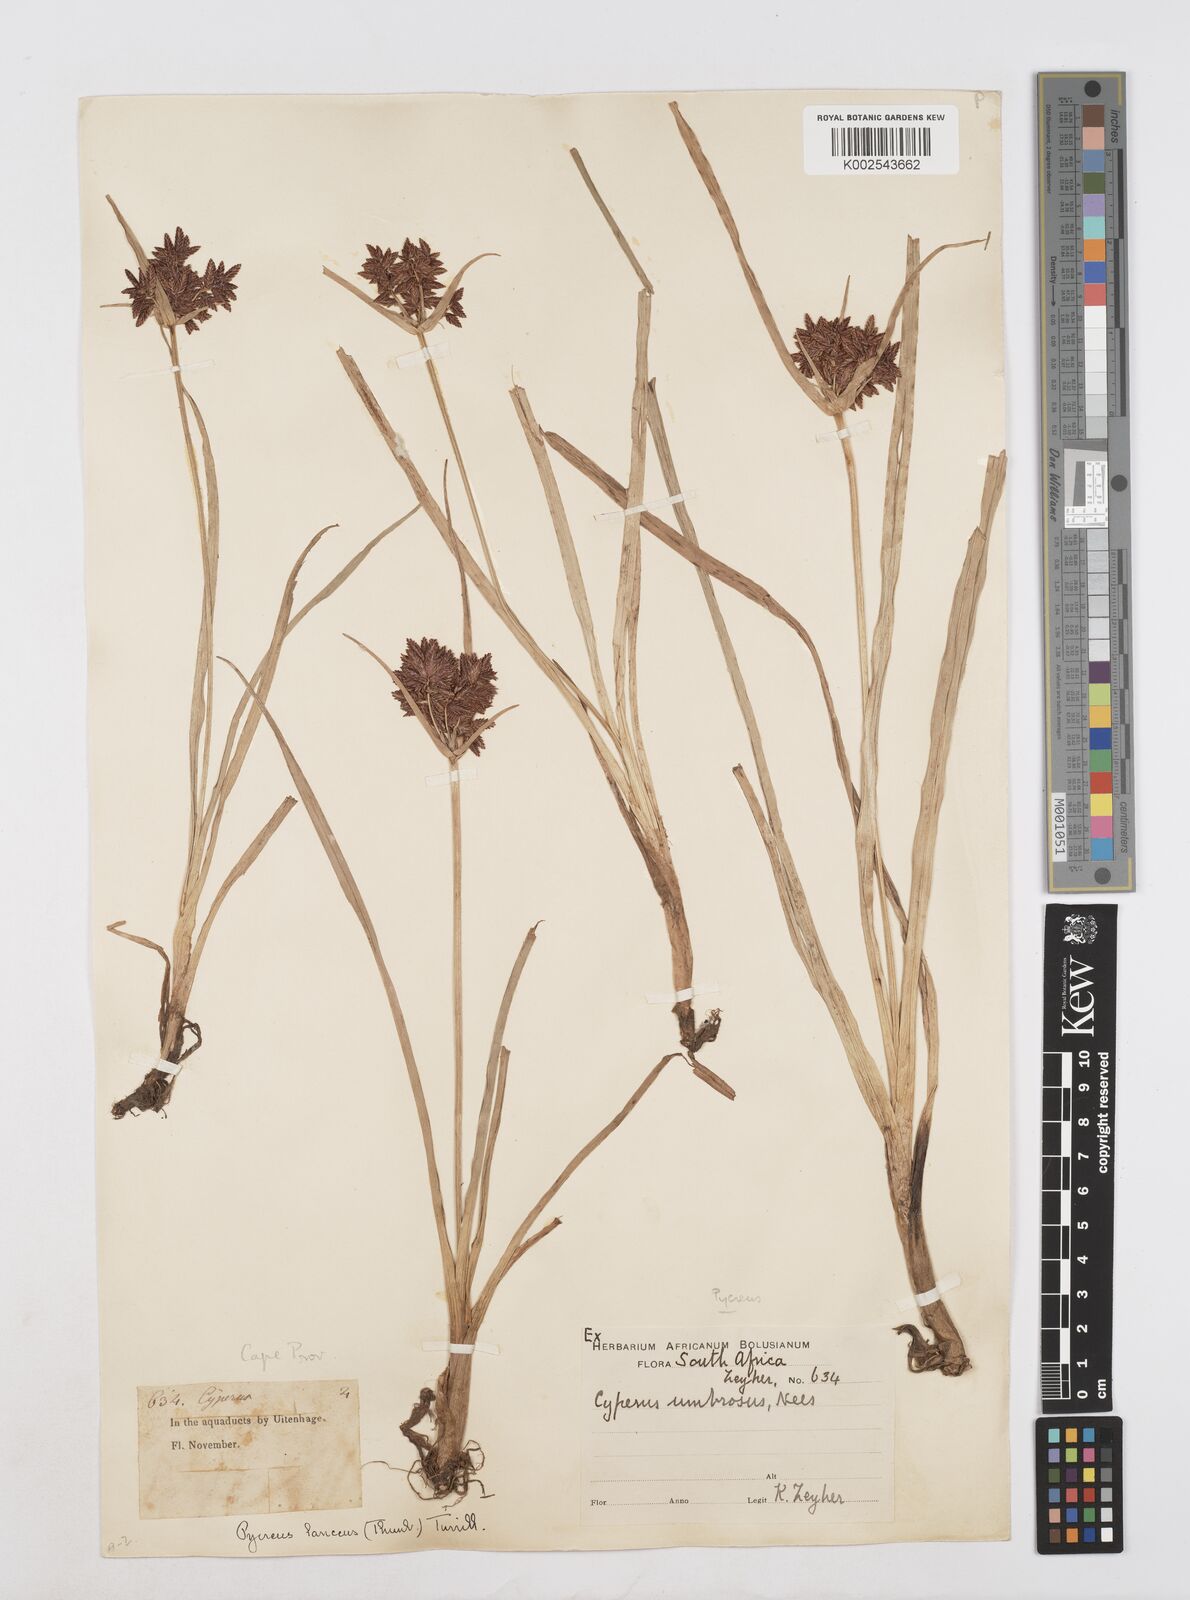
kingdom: Plantae
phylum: Tracheophyta
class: Liliopsida
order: Poales
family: Cyperaceae
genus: Cyperus
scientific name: Cyperus nitidus
